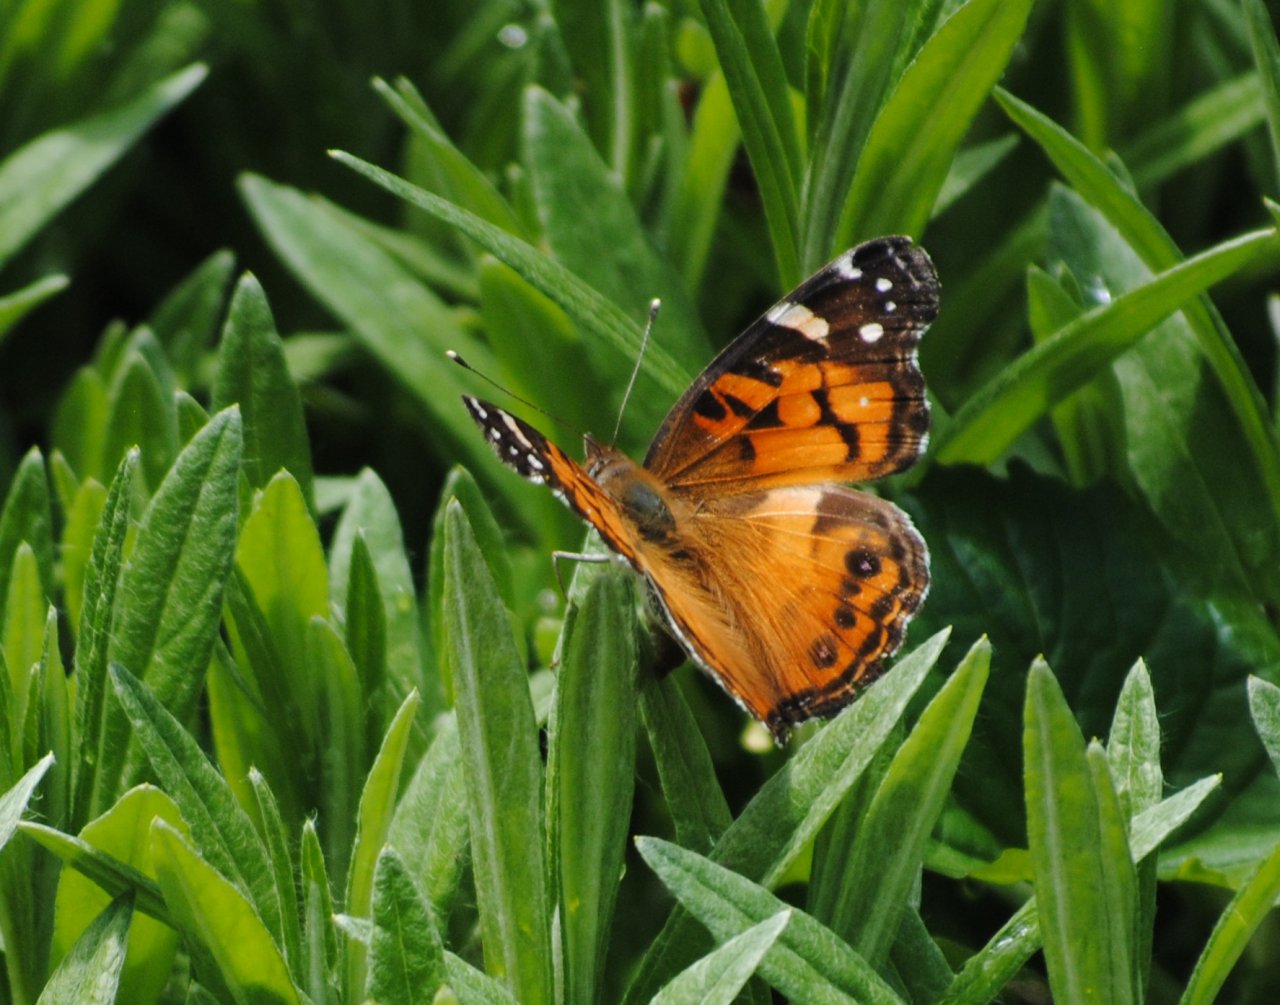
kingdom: Animalia
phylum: Arthropoda
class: Insecta
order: Lepidoptera
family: Nymphalidae
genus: Vanessa
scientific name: Vanessa virginiensis
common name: American Lady
